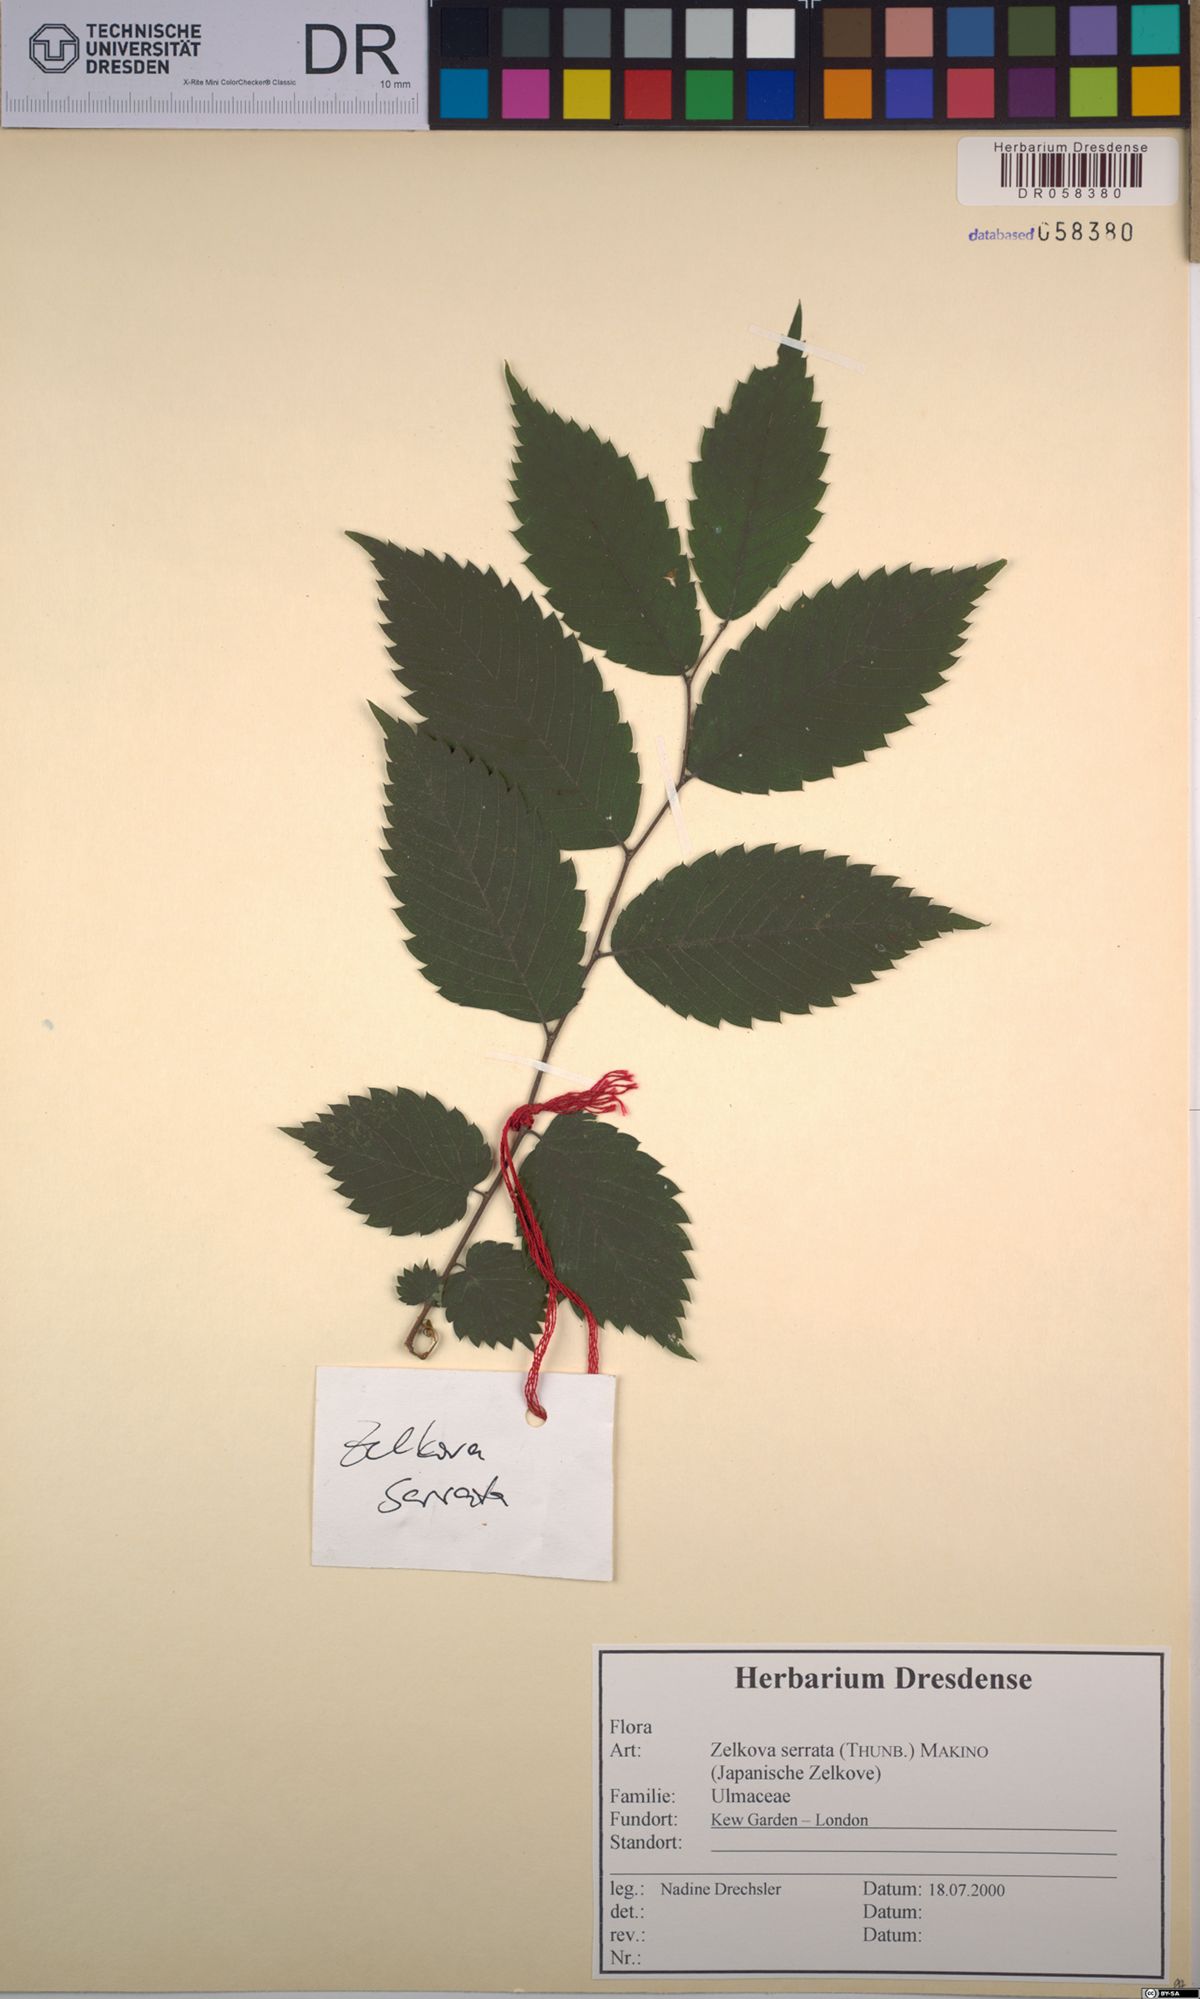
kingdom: Plantae
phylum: Tracheophyta
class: Magnoliopsida
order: Rosales
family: Ulmaceae
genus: Zelkova
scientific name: Zelkova serrata
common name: Japanese zelkova
